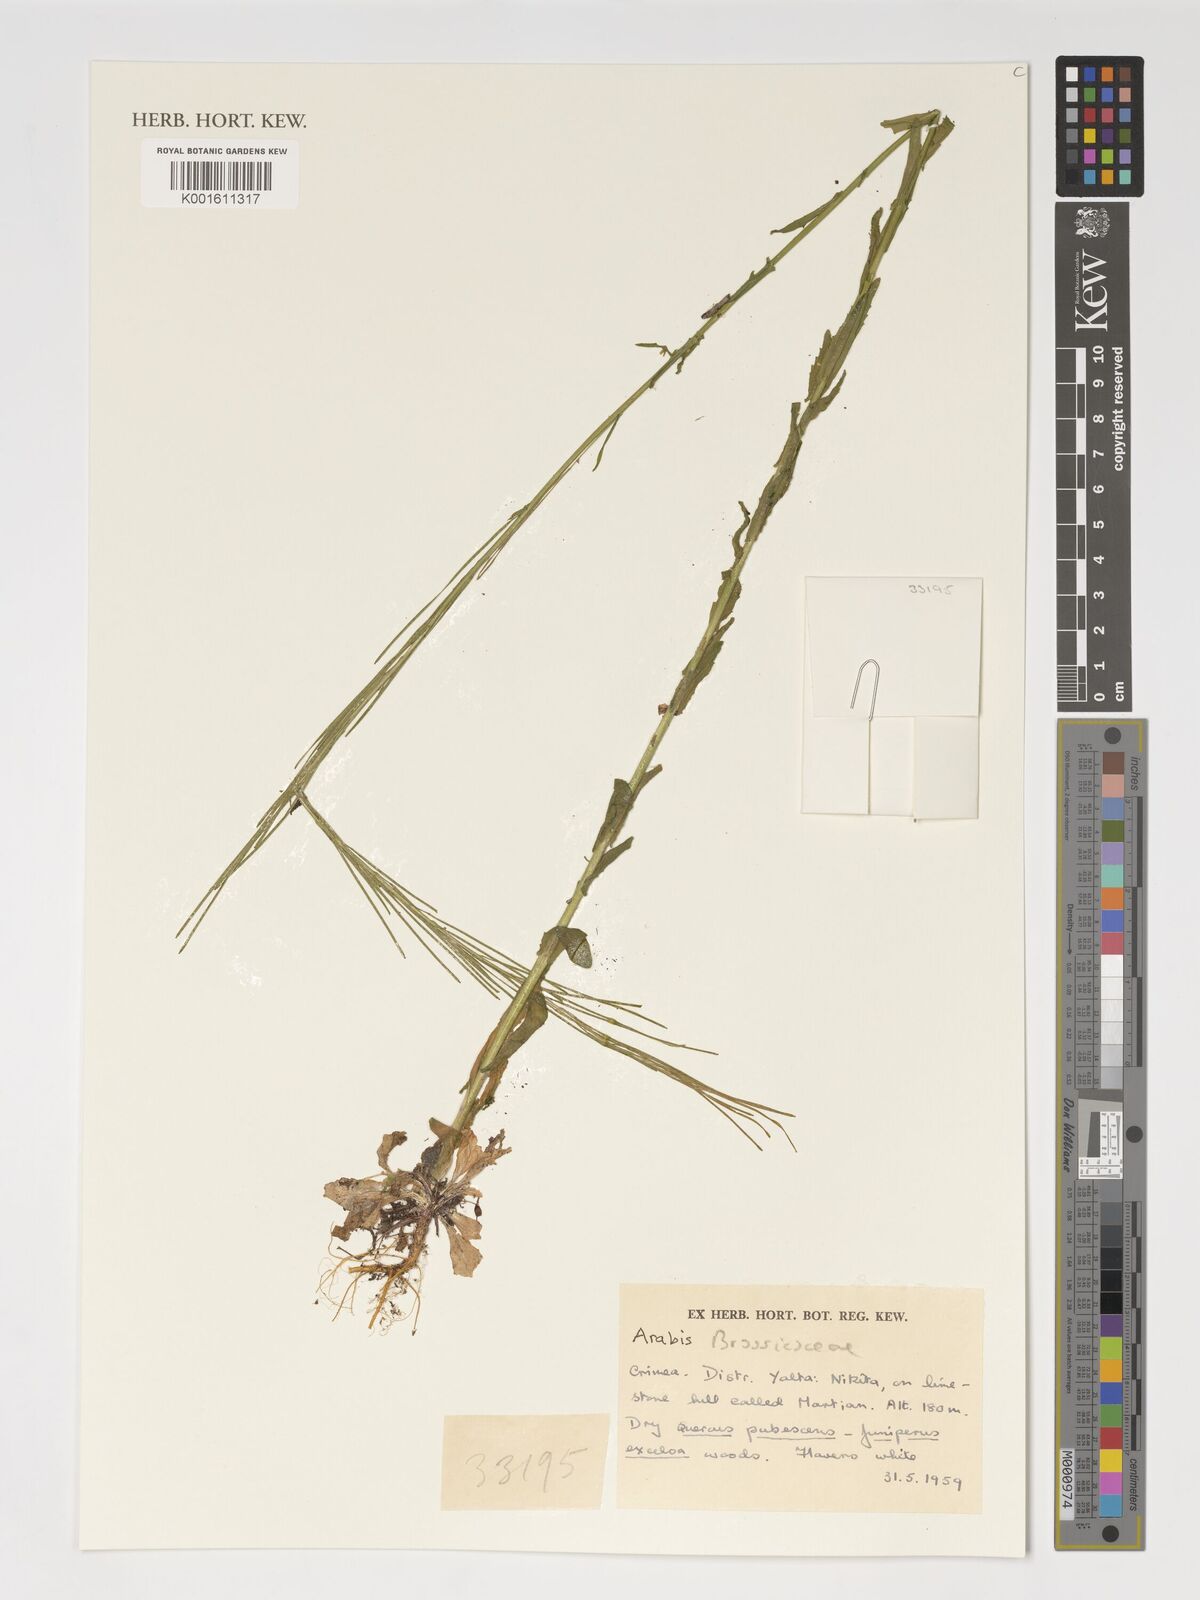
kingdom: Plantae
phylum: Tracheophyta
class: Magnoliopsida
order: Brassicales
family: Brassicaceae
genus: Arabis
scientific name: Arabis
